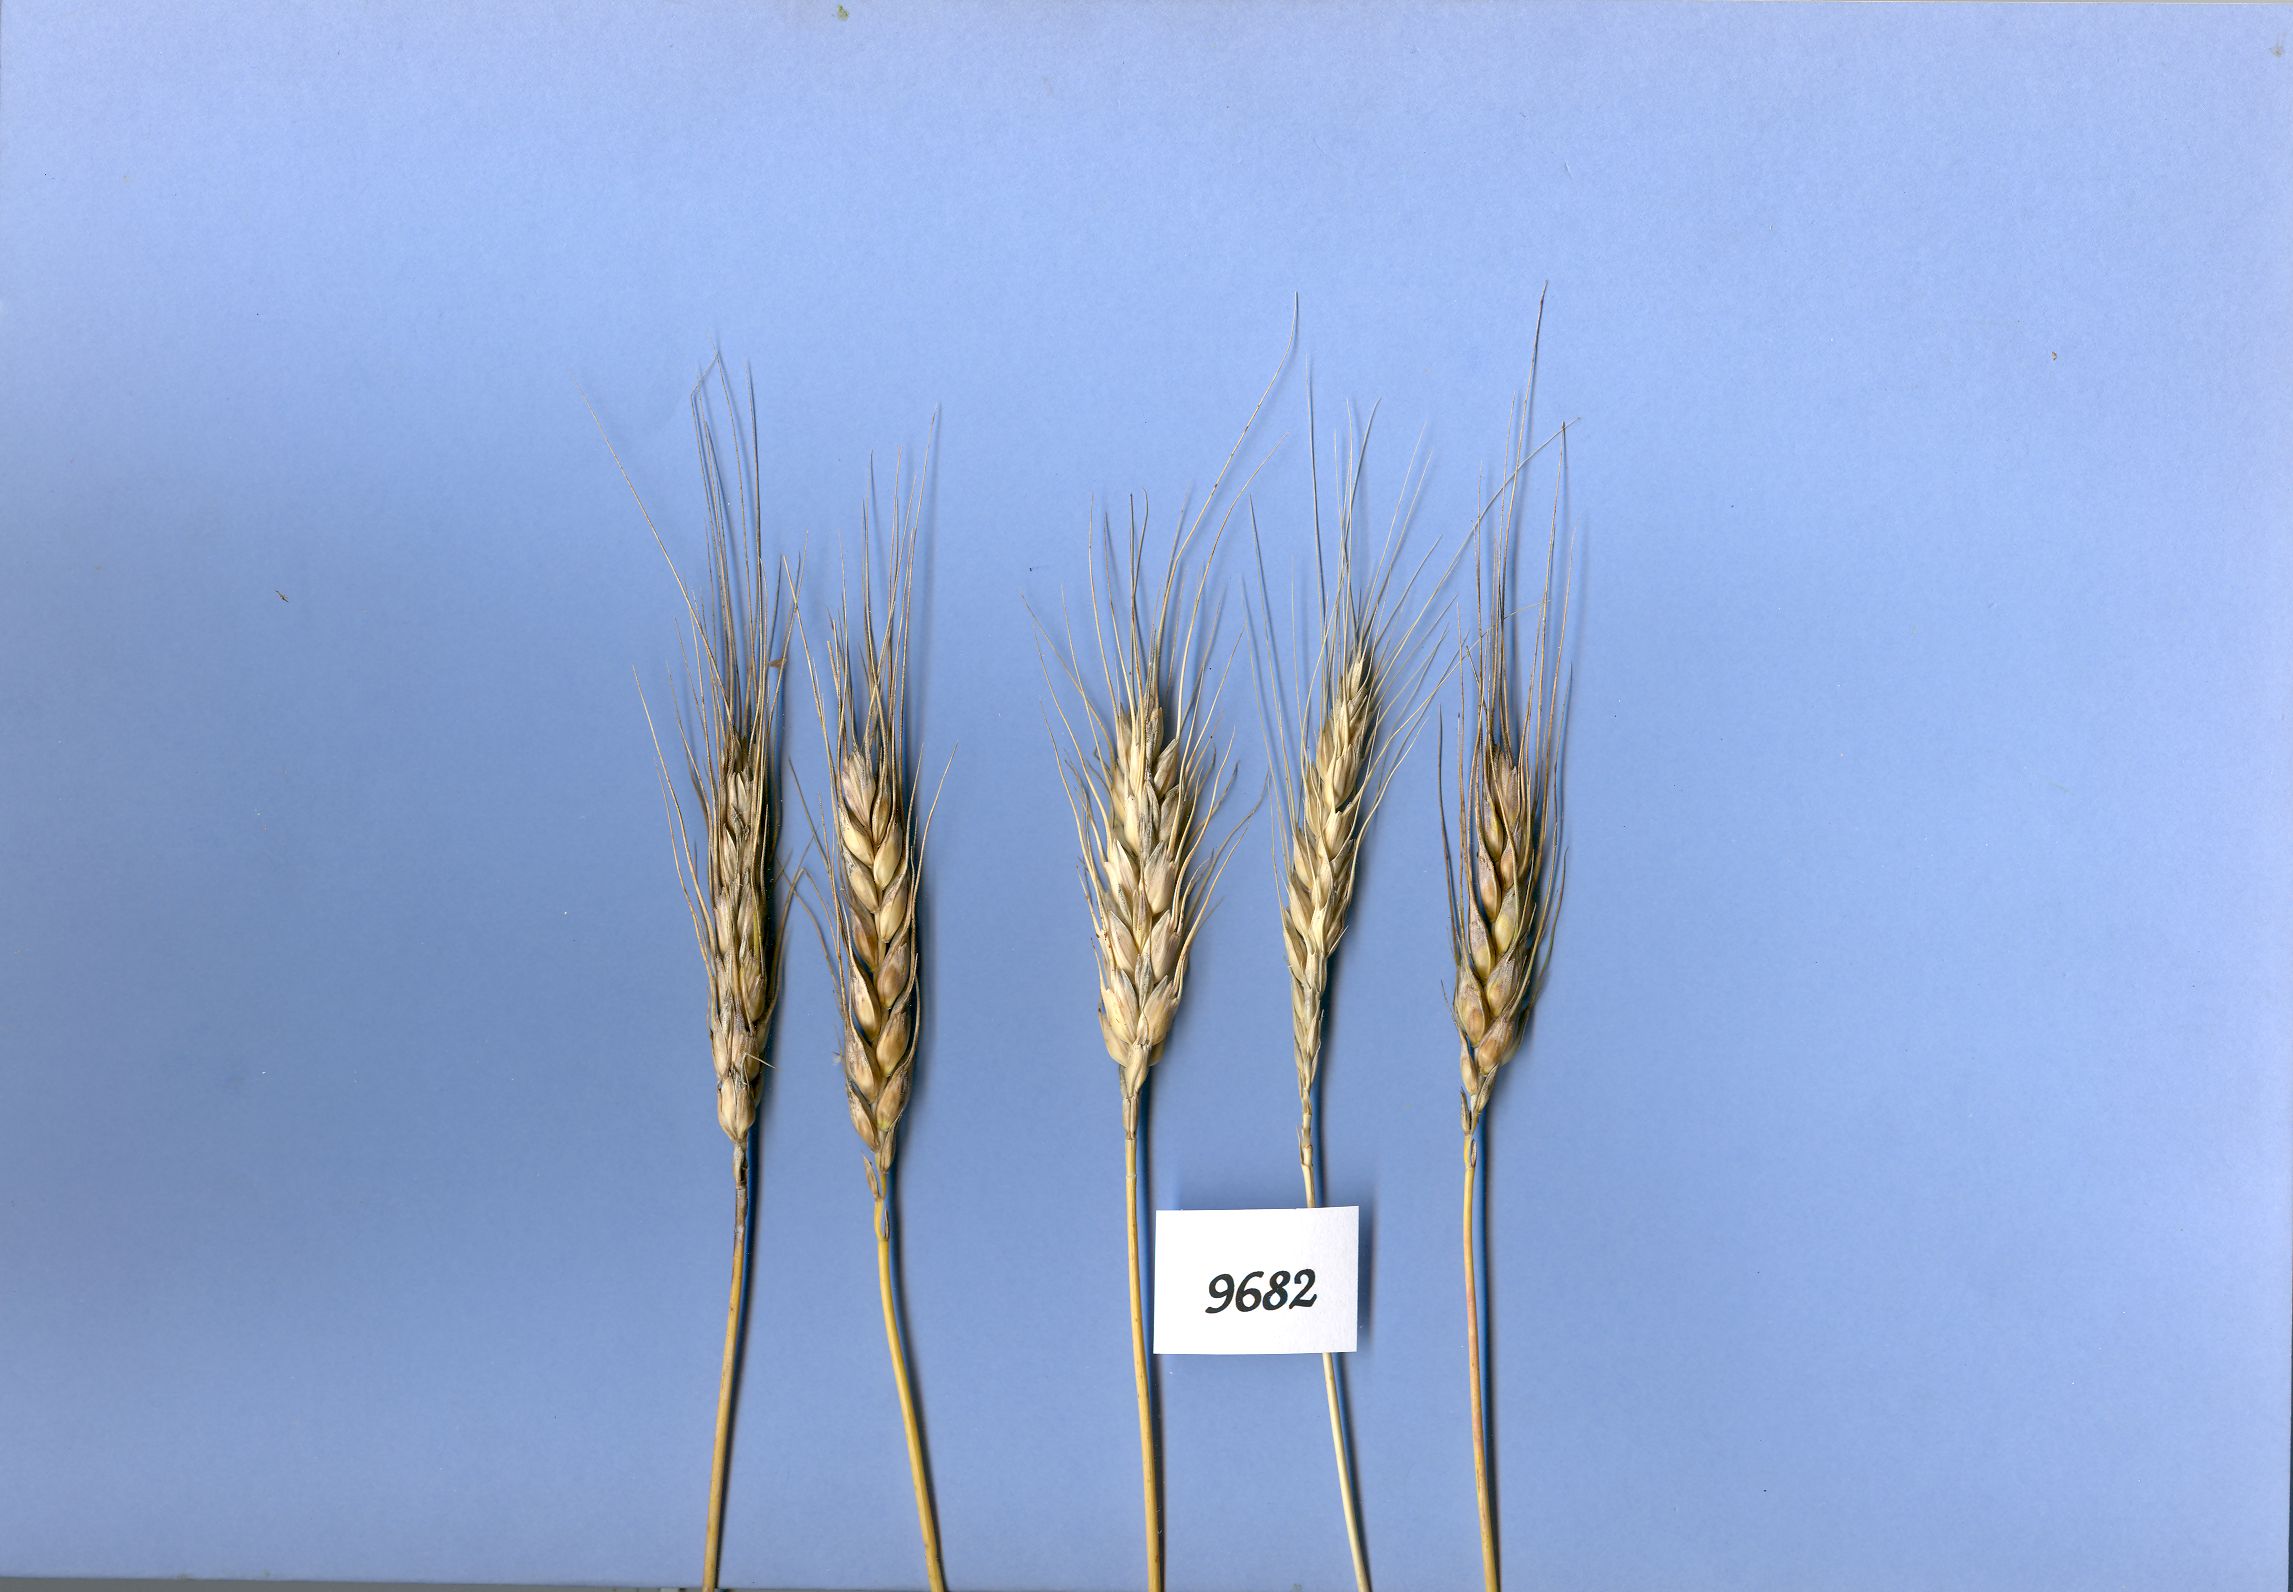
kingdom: Plantae
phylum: Tracheophyta
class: Liliopsida
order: Poales
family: Poaceae
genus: Triticum
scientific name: Triticum turgidum
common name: Rivet wheat
